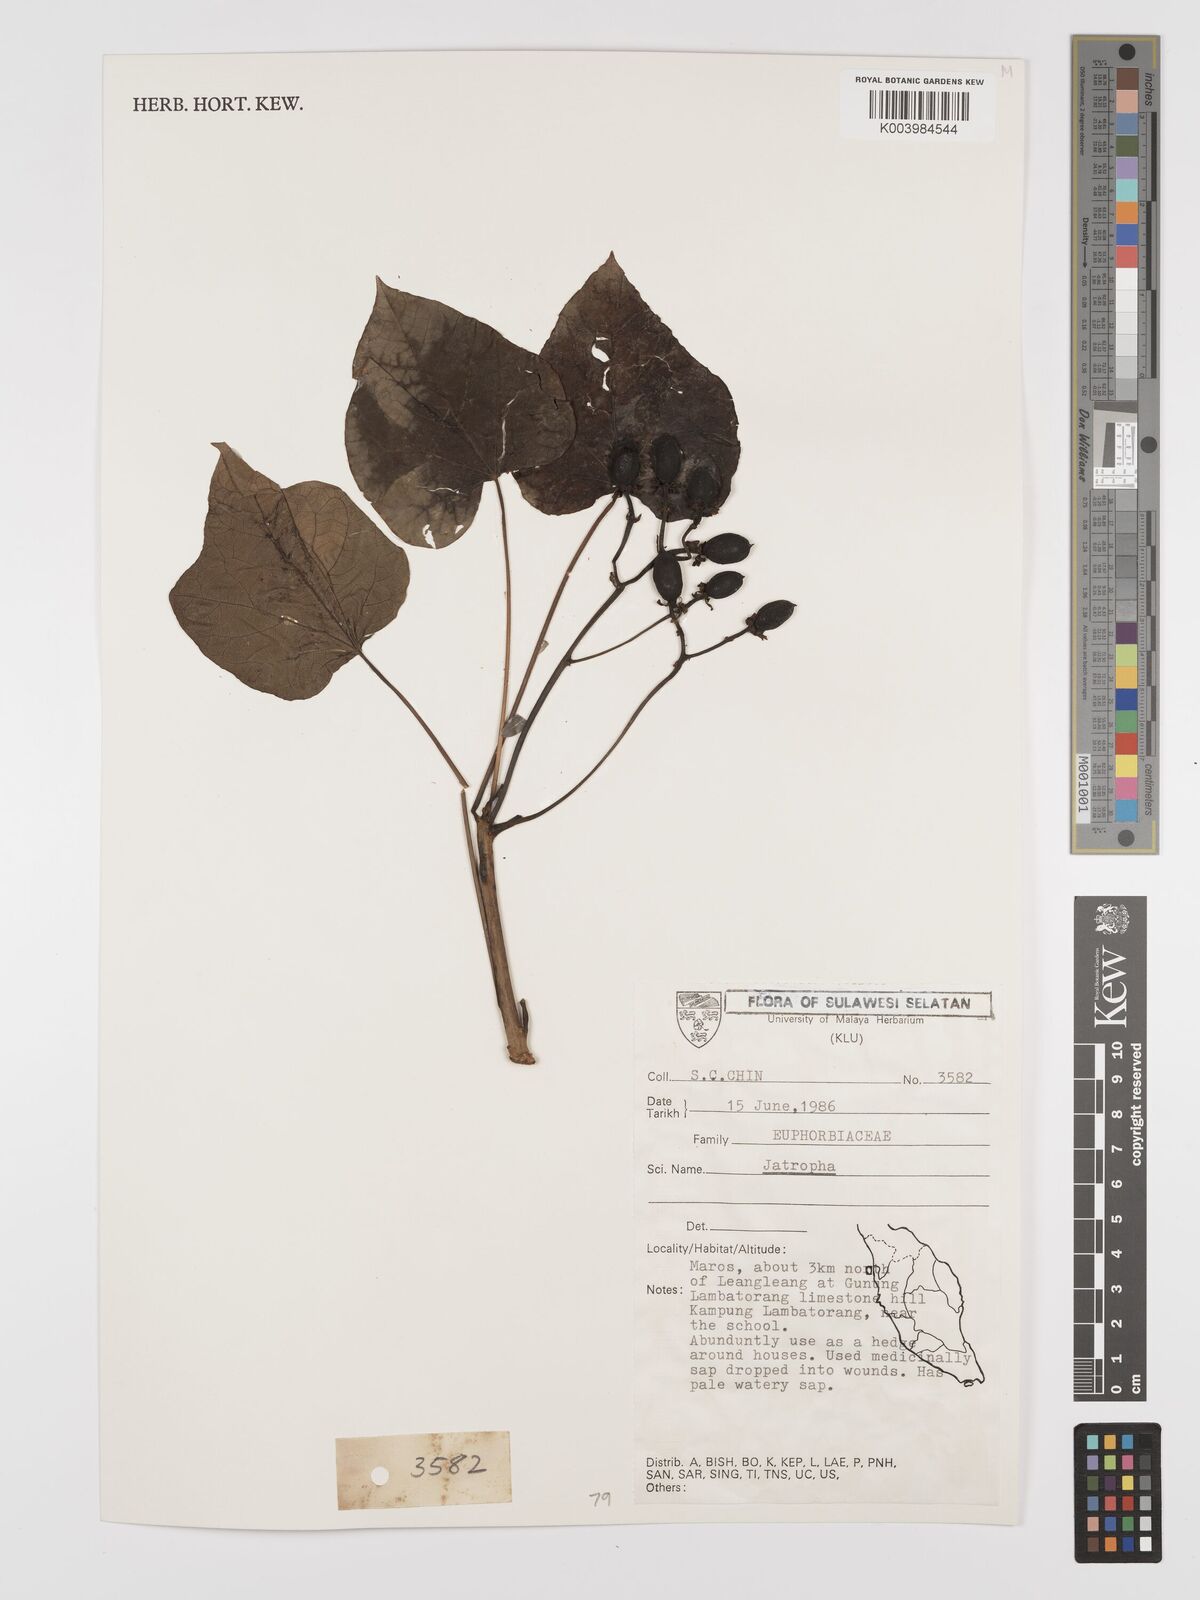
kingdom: Plantae
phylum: Tracheophyta
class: Magnoliopsida
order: Malpighiales
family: Euphorbiaceae
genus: Jatropha
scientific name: Jatropha curcas
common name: Barbados nut
